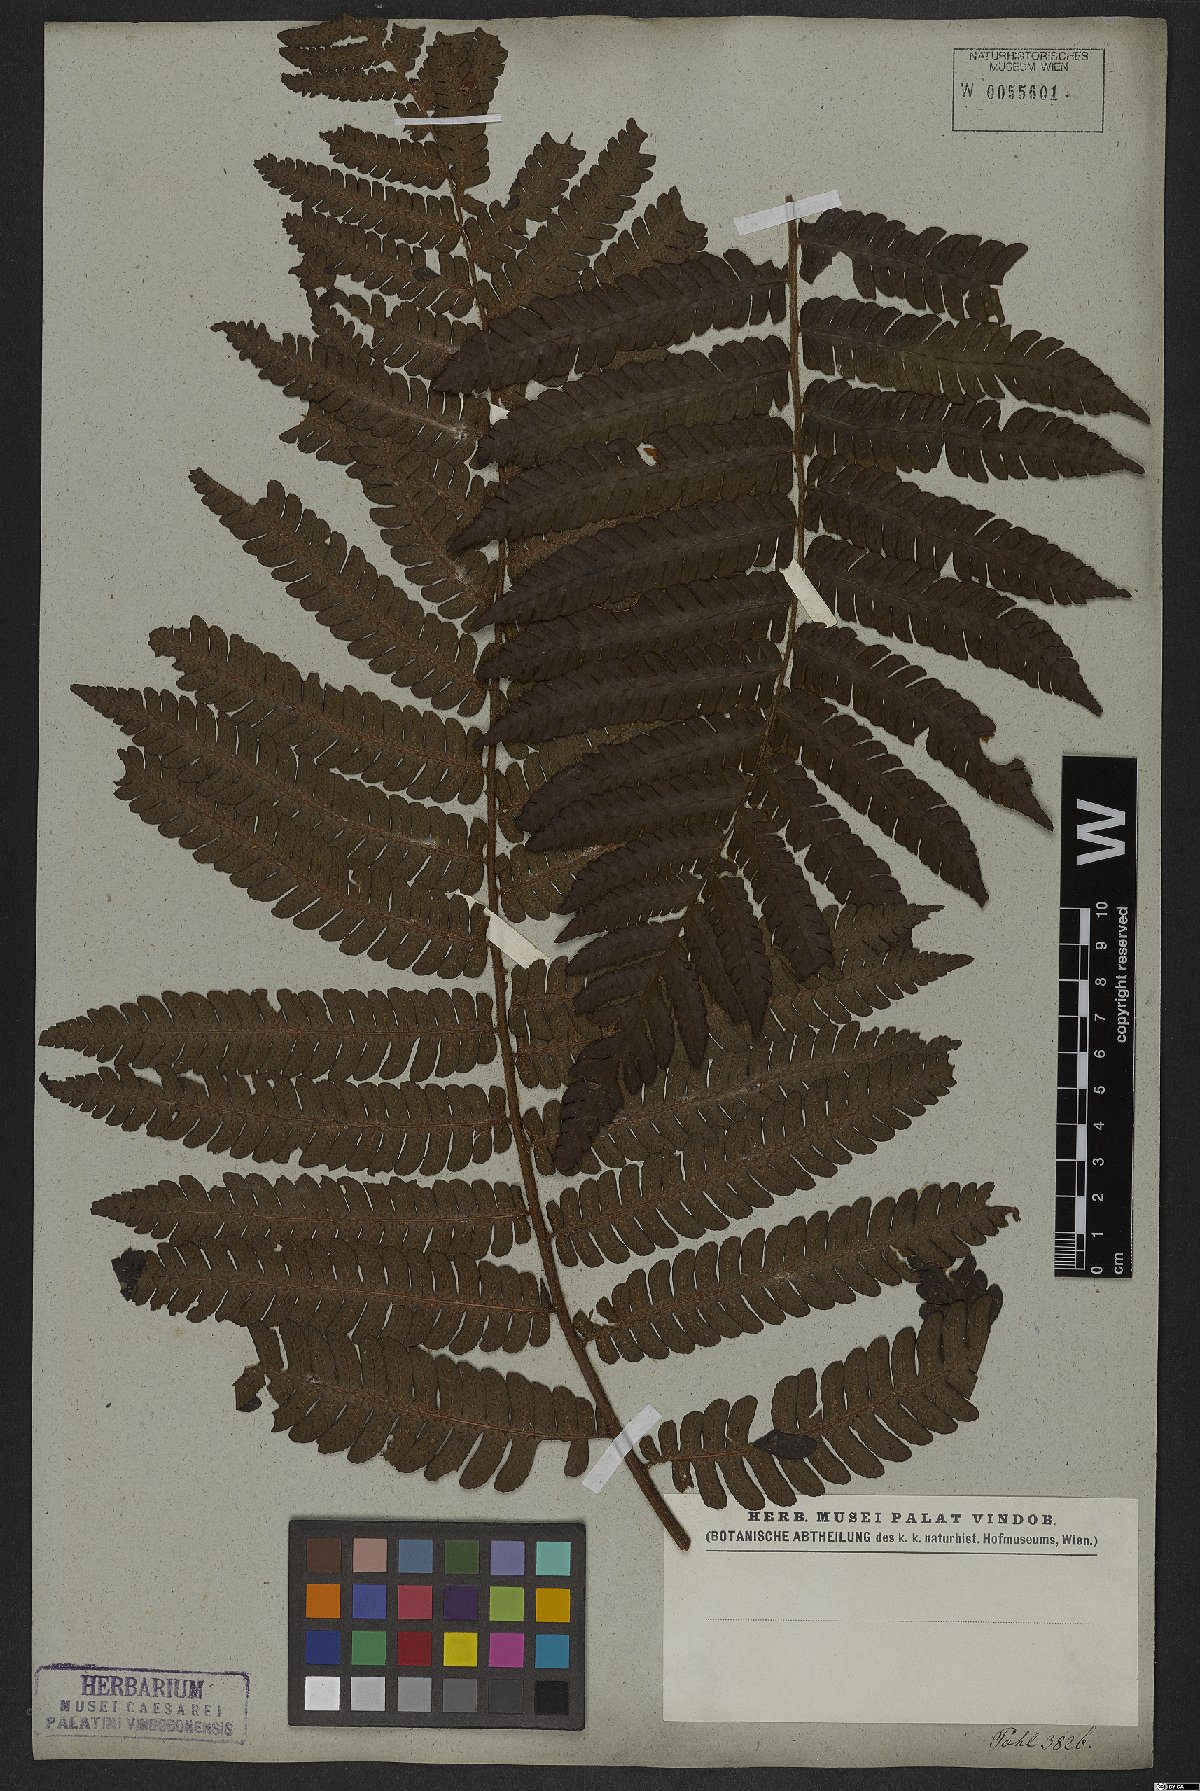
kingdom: Plantae
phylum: Tracheophyta
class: Polypodiopsida
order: Polypodiales
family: Thelypteridaceae
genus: Glaphyropteridopsis
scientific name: Glaphyropteridopsis erubescens
